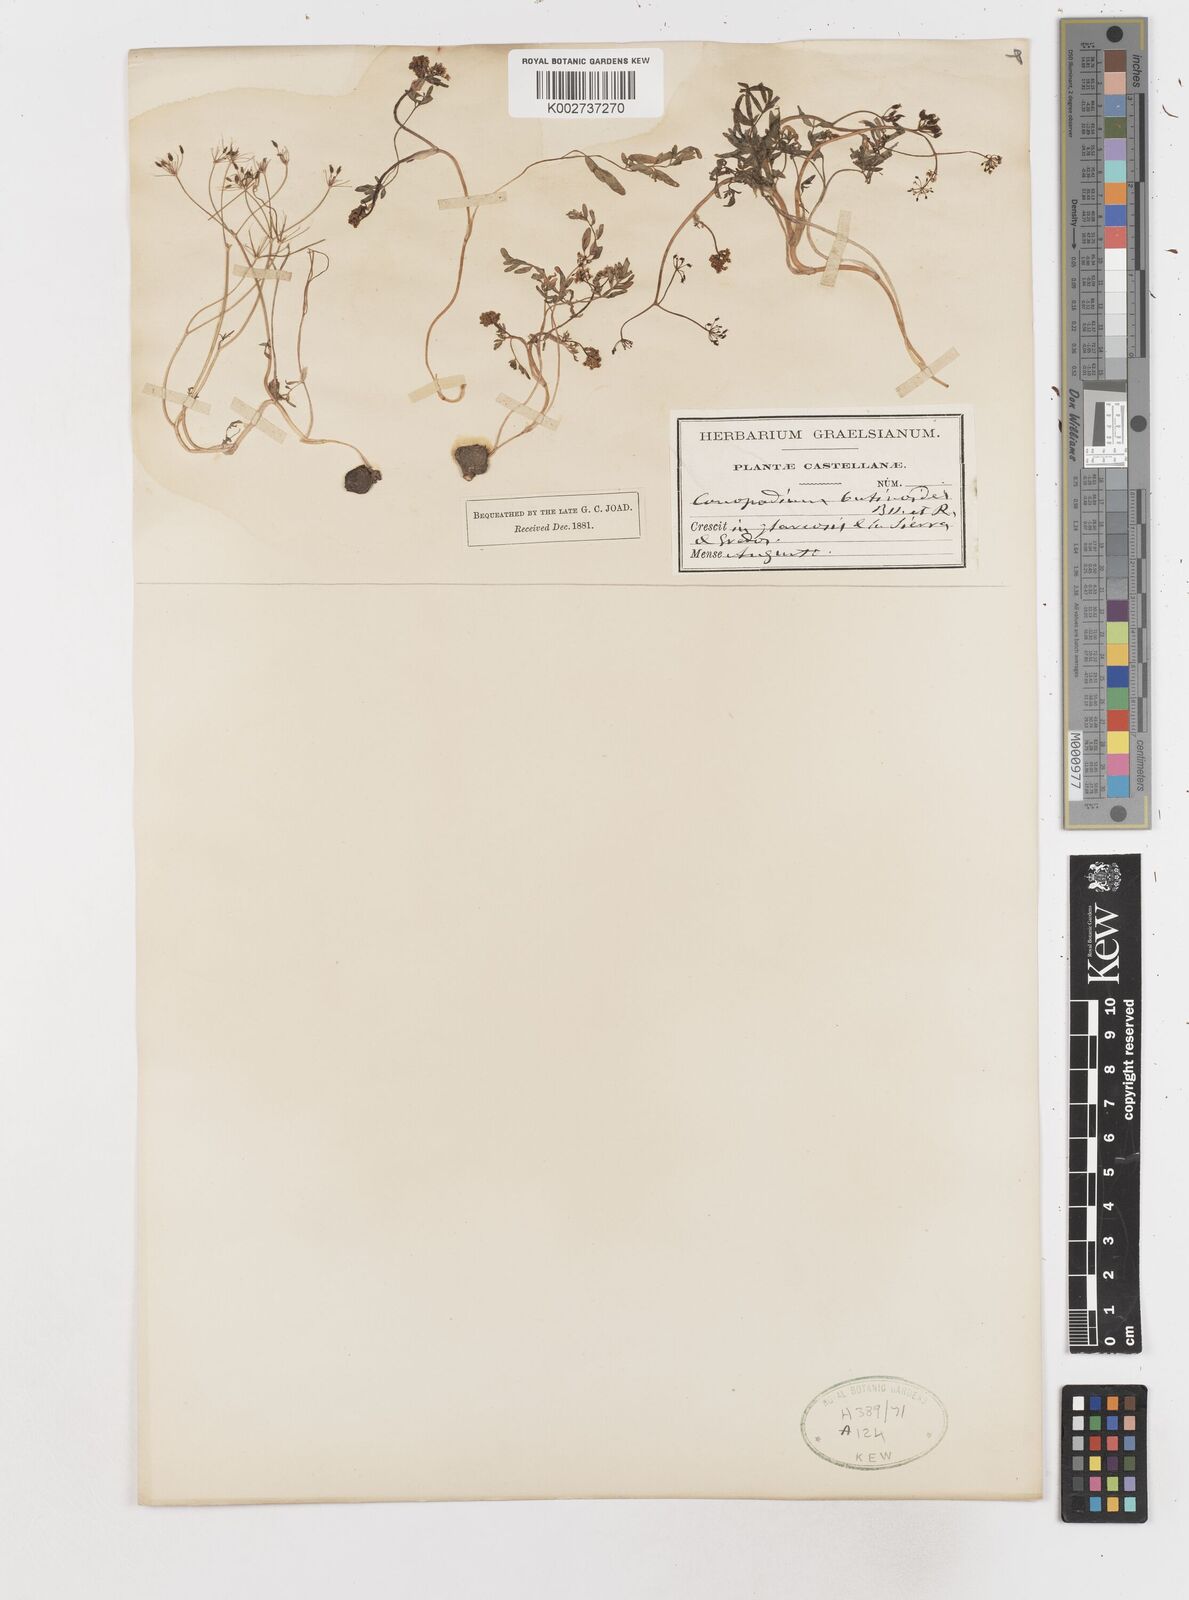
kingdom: Plantae
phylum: Tracheophyta
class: Magnoliopsida
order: Apiales
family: Apiaceae
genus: Conopodium
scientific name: Conopodium bunioides
